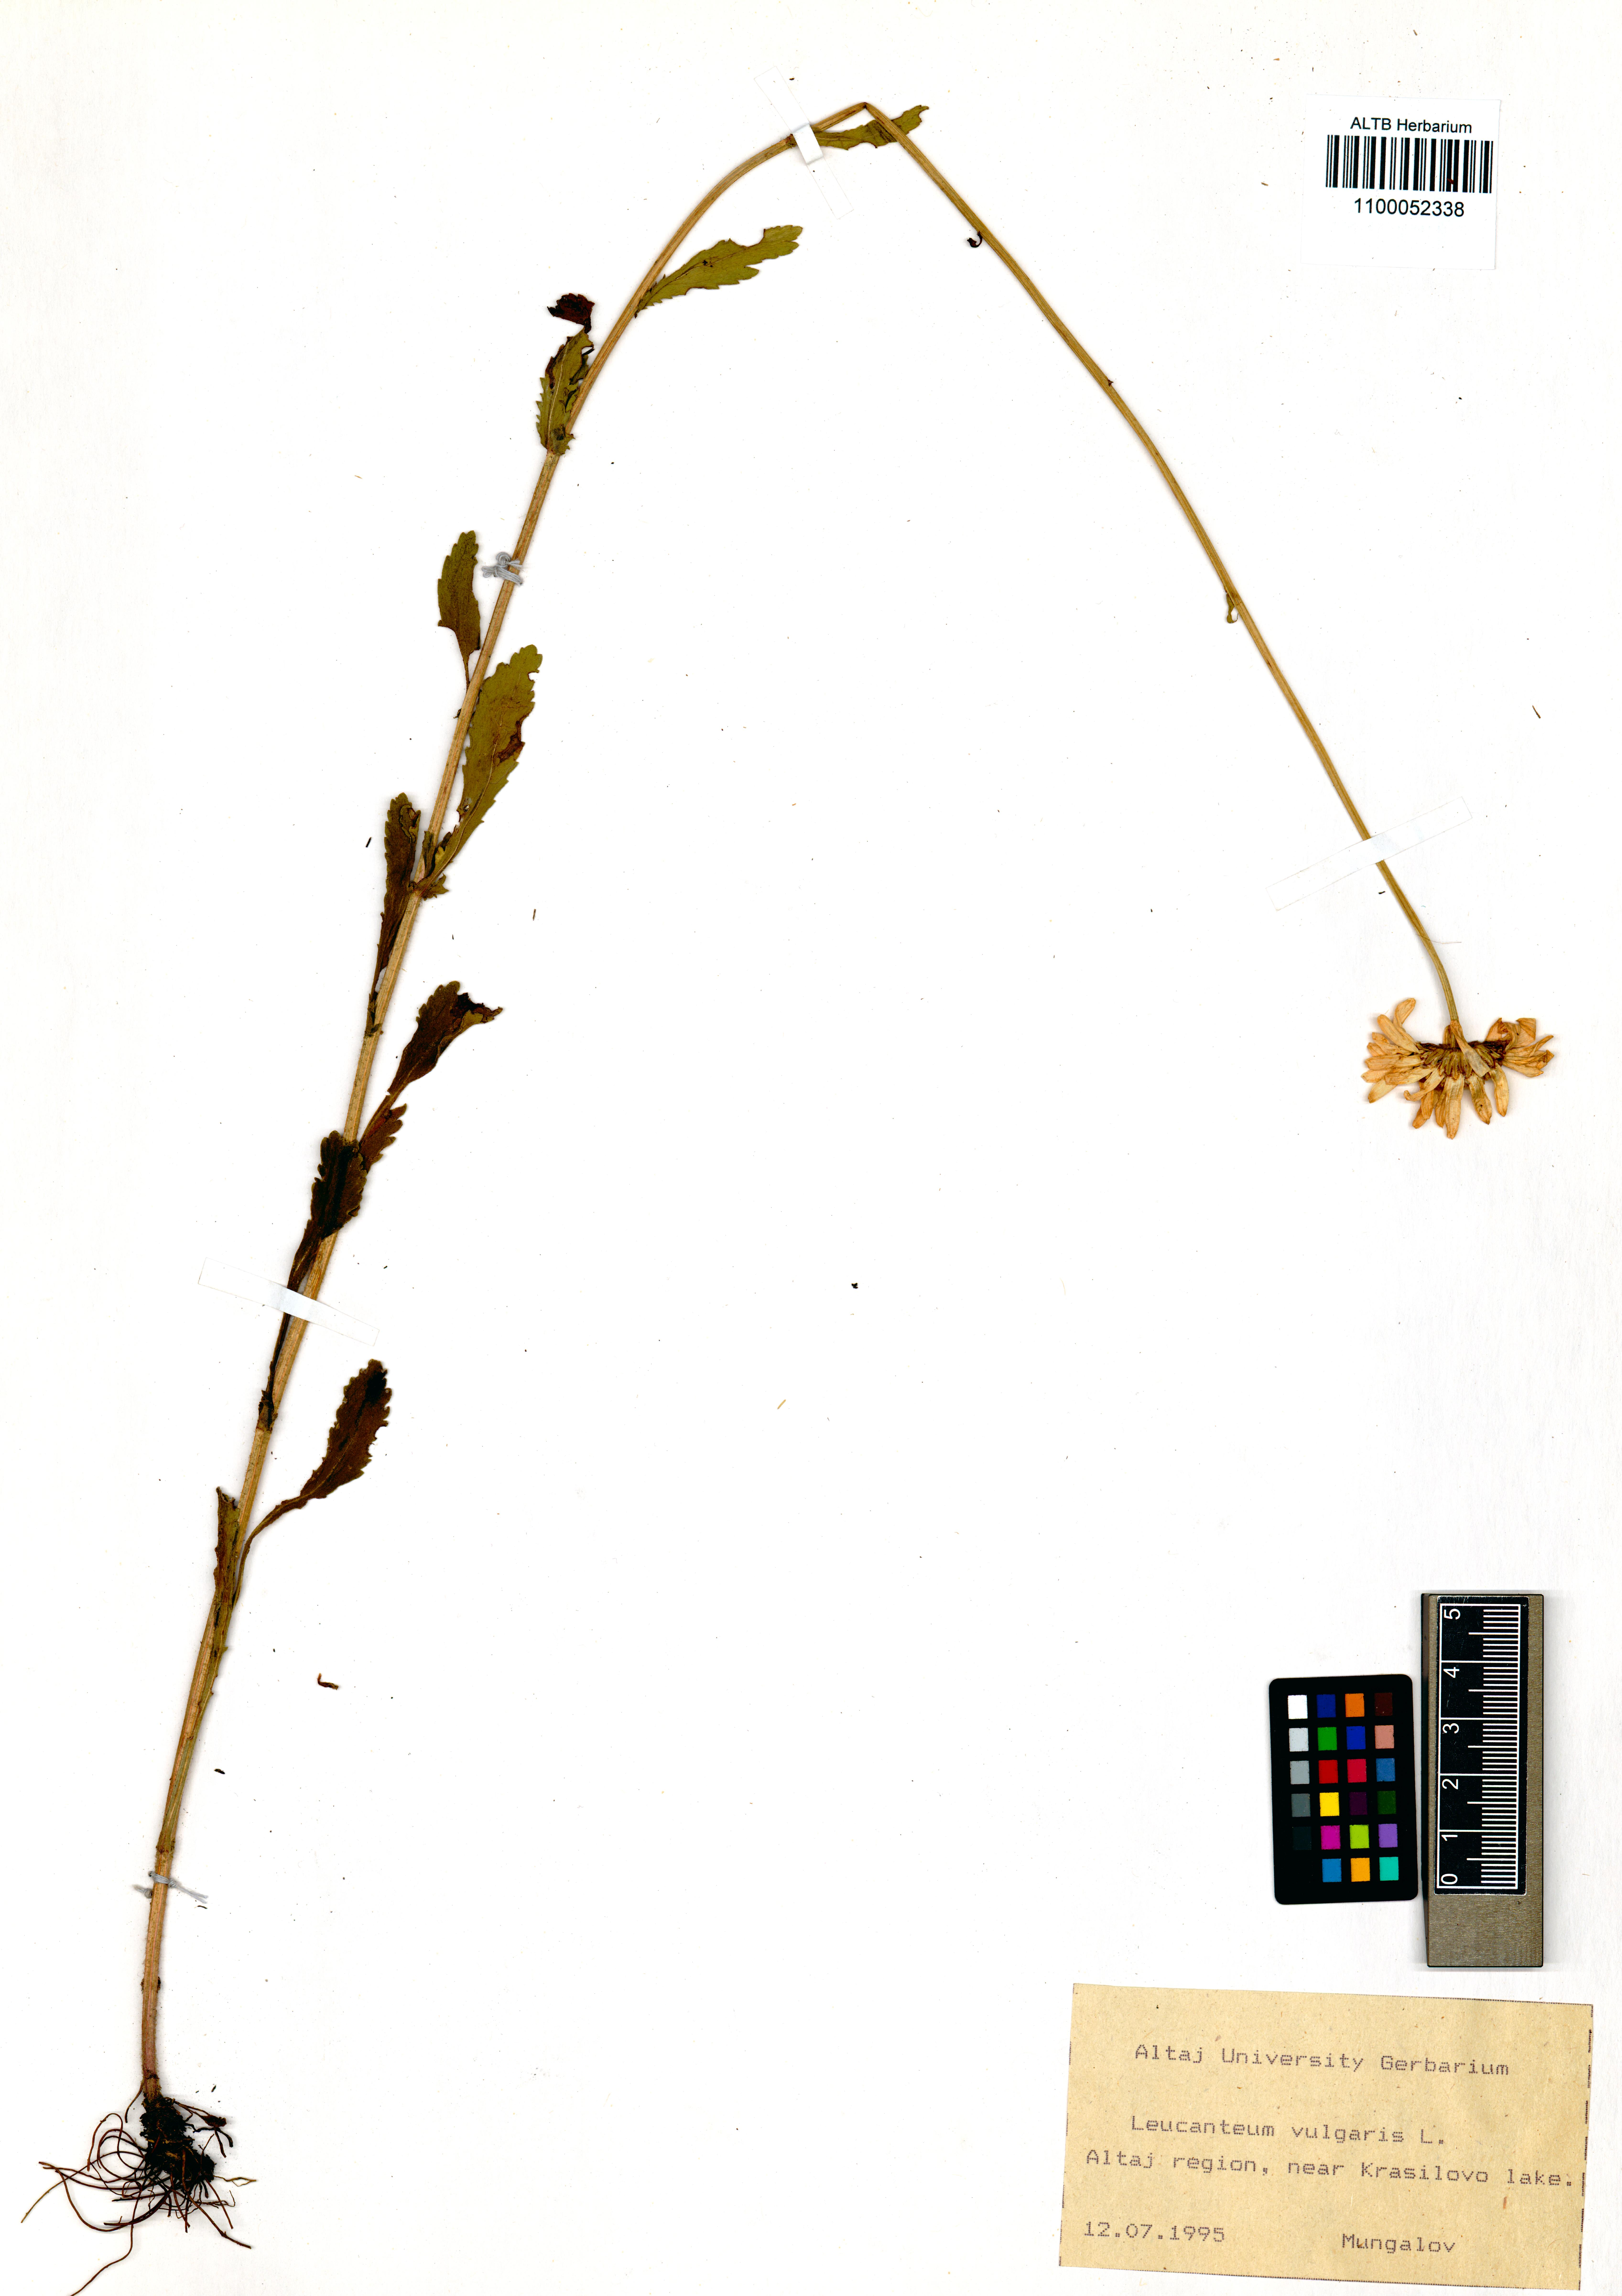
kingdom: Plantae
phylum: Tracheophyta
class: Magnoliopsida
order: Asterales
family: Asteraceae
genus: Leucanthemum
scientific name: Leucanthemum vulgare
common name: Oxeye daisy
